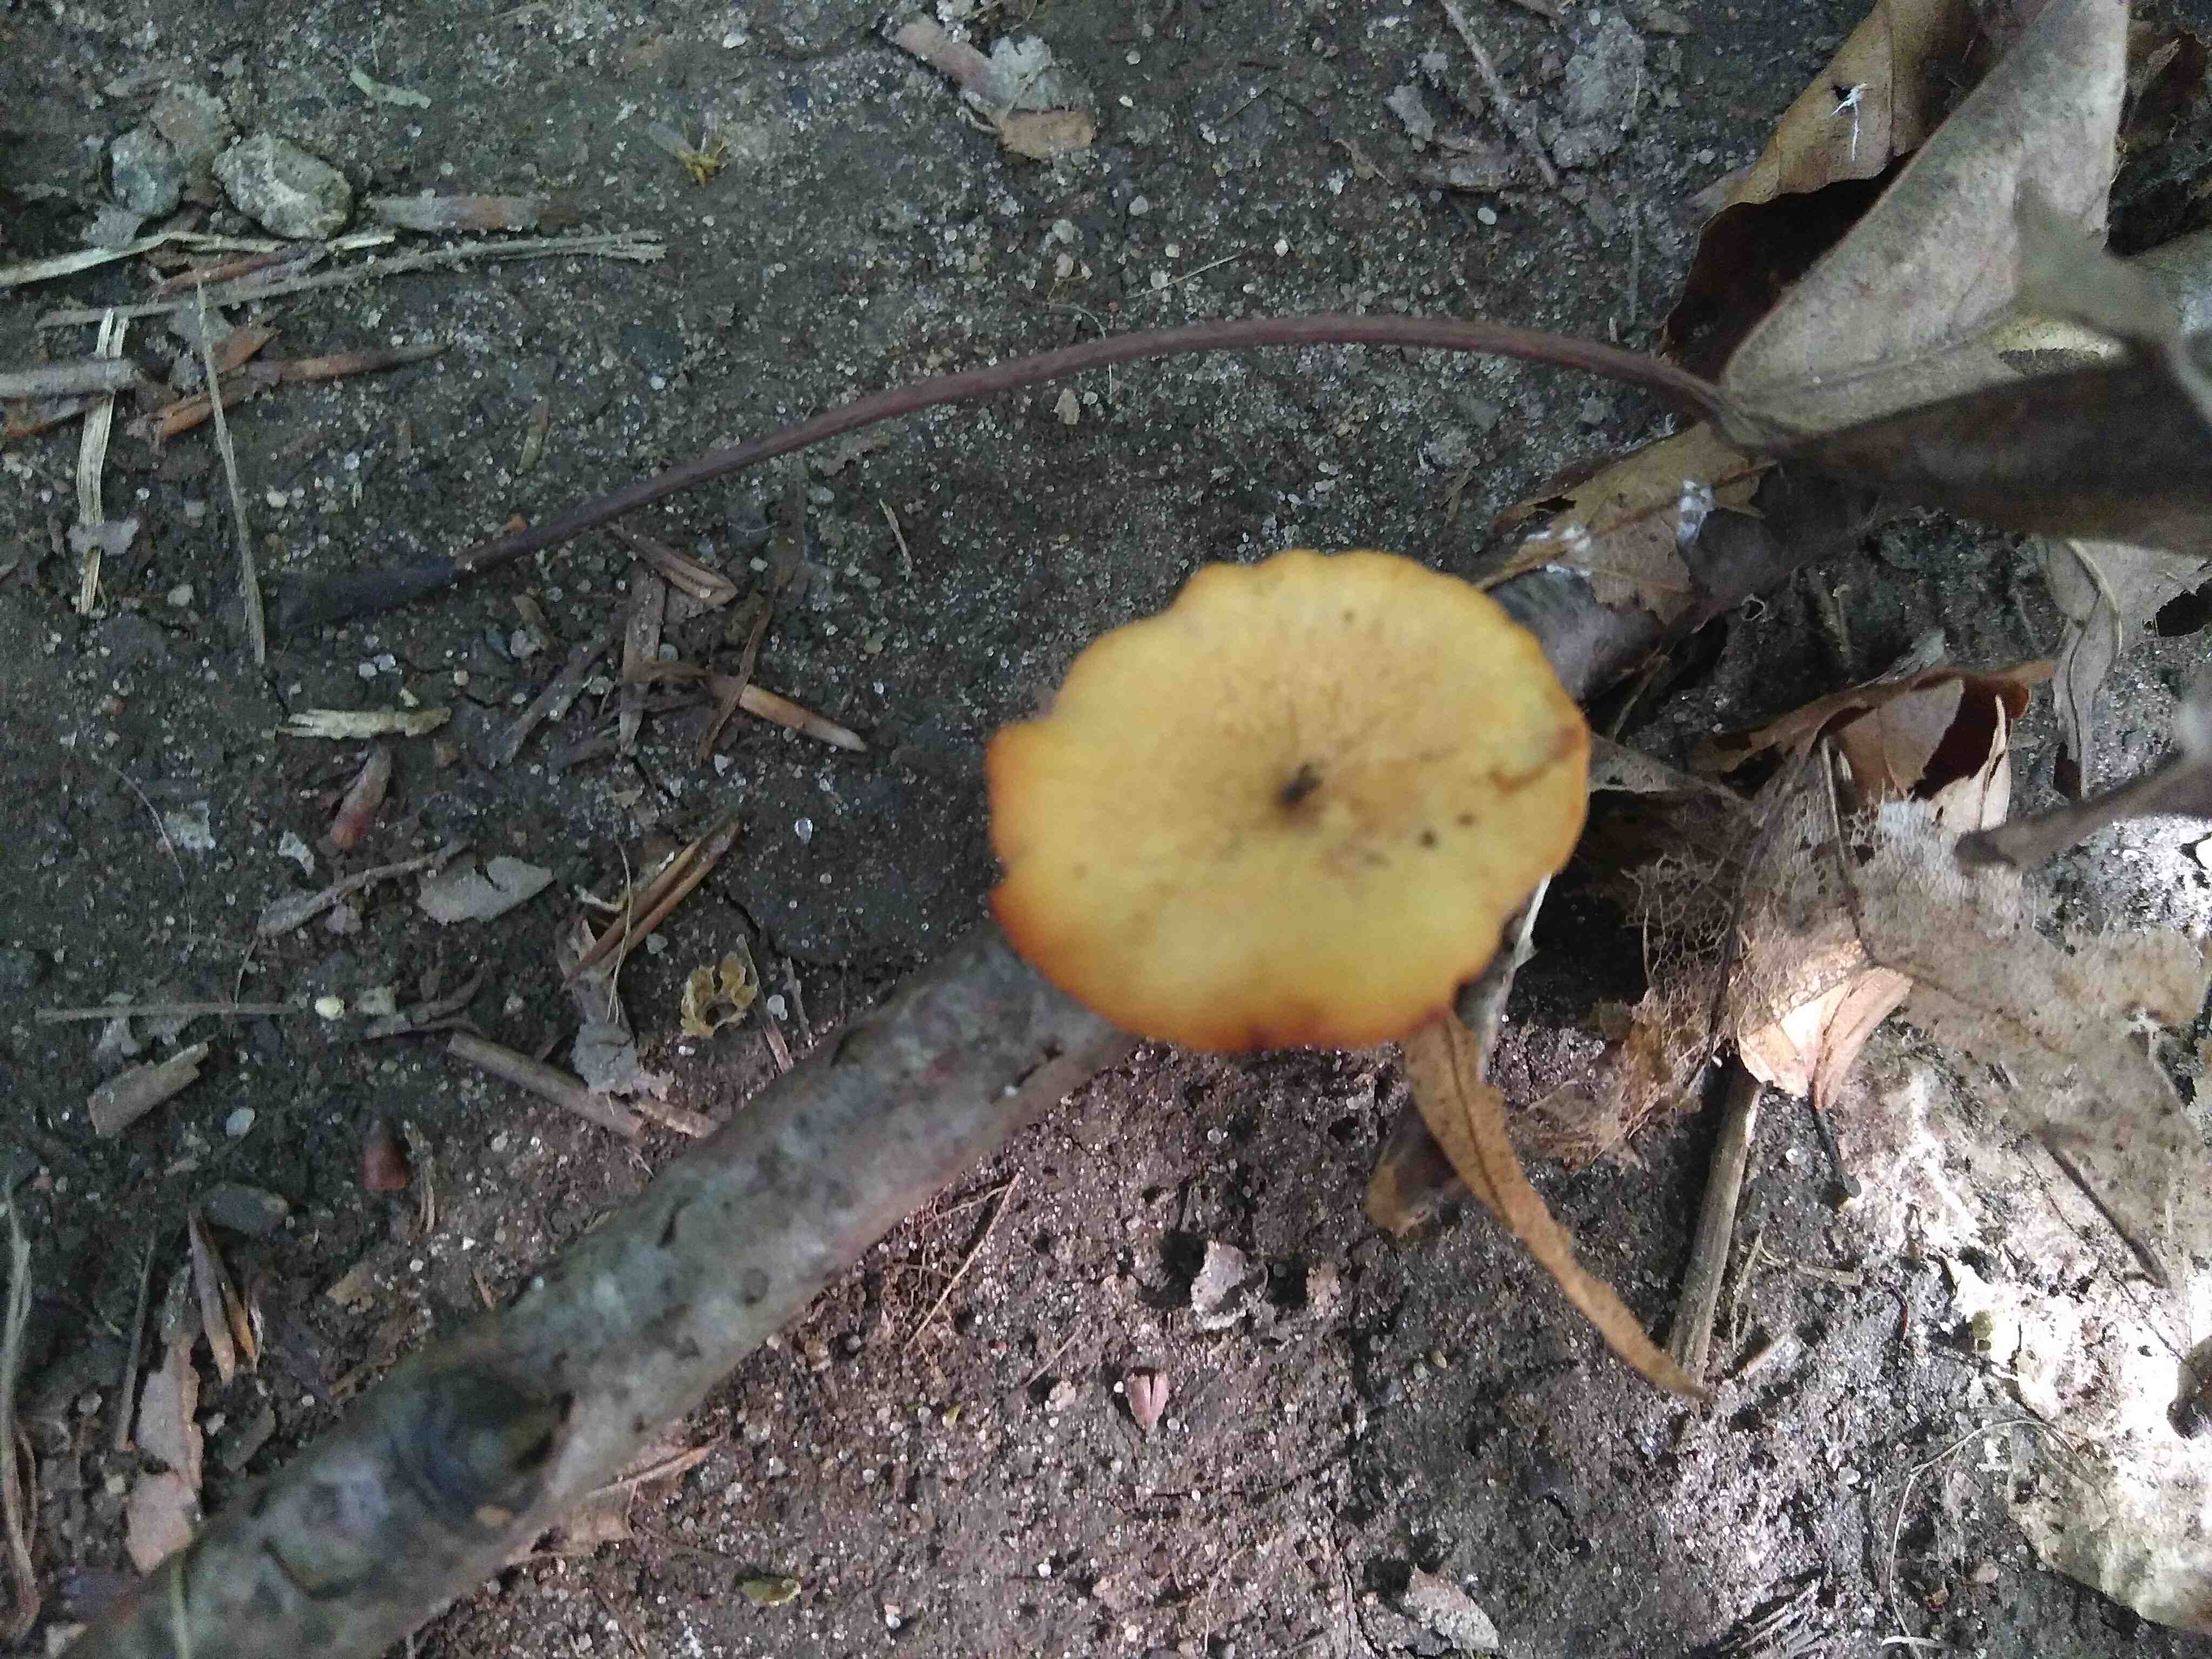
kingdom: Fungi
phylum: Basidiomycota
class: Agaricomycetes
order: Polyporales
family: Polyporaceae
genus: Cerioporus
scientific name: Cerioporus varius
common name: foranderlig stilkporesvamp
